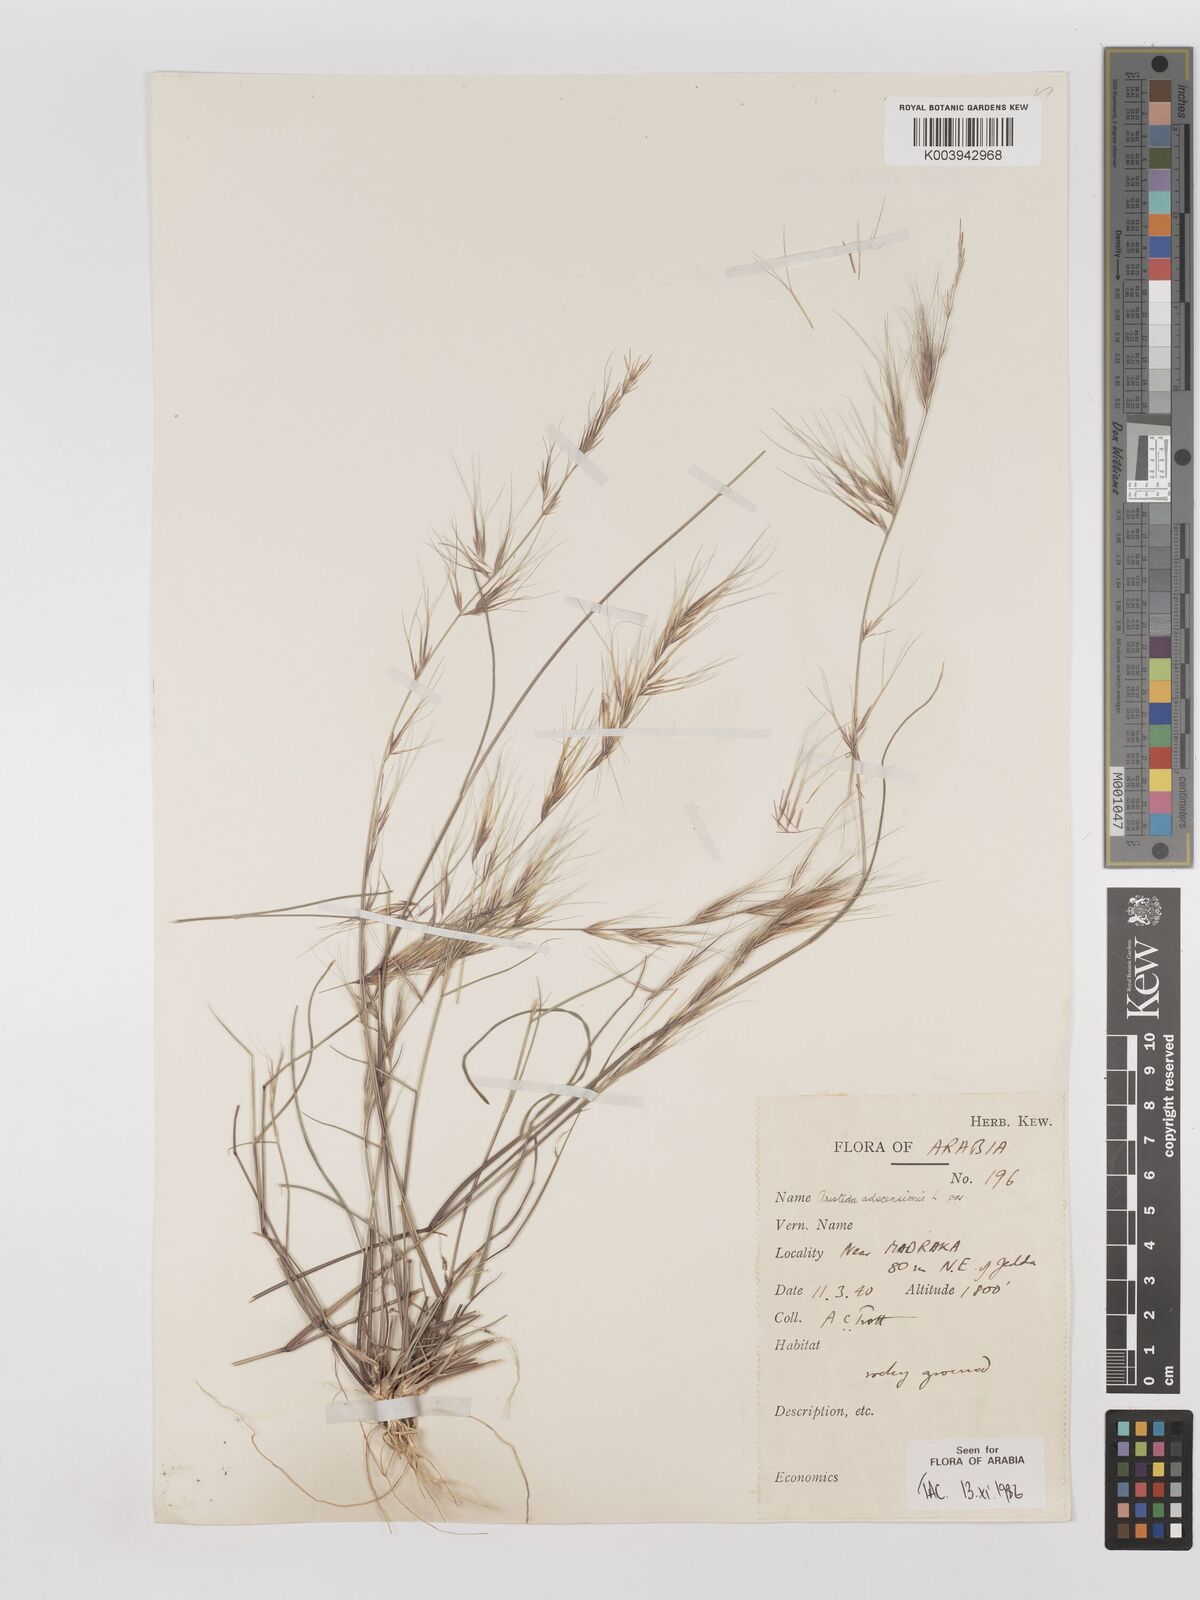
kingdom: Plantae
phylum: Tracheophyta
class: Liliopsida
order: Poales
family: Poaceae
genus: Aristida
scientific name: Aristida adscensionis
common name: Sixweeks threeawn
